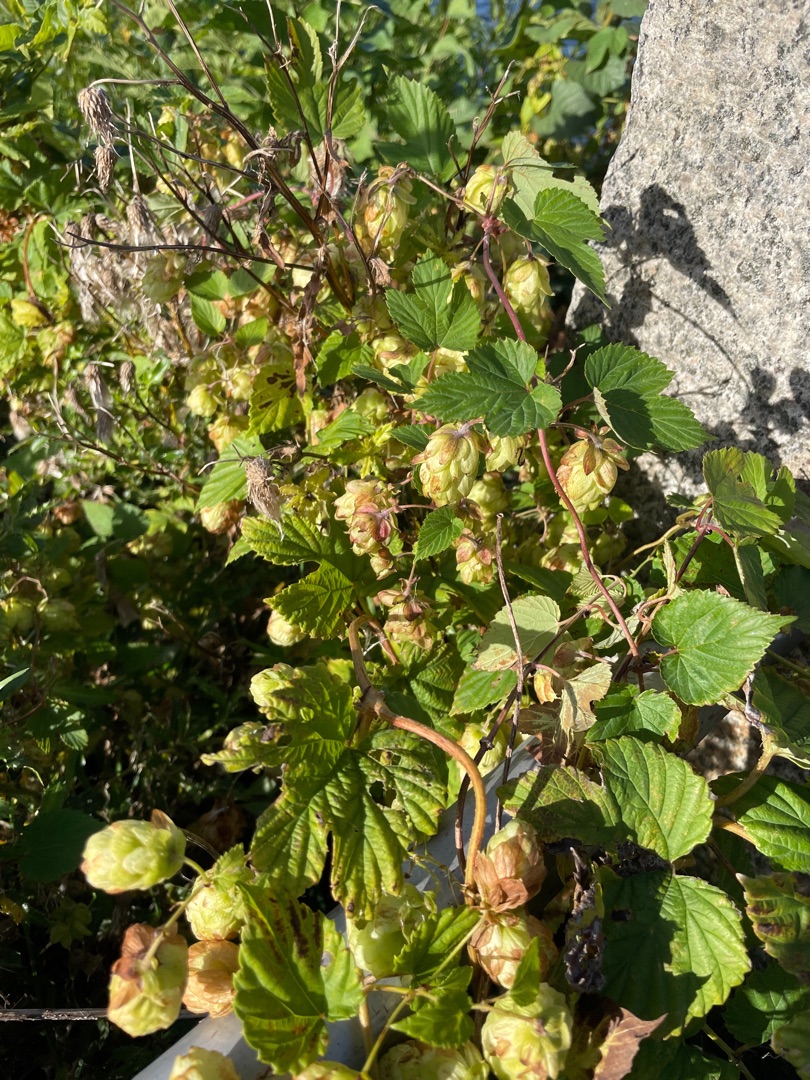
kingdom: Plantae
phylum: Tracheophyta
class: Magnoliopsida
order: Rosales
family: Cannabaceae
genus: Humulus
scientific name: Humulus lupulus
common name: Humle
